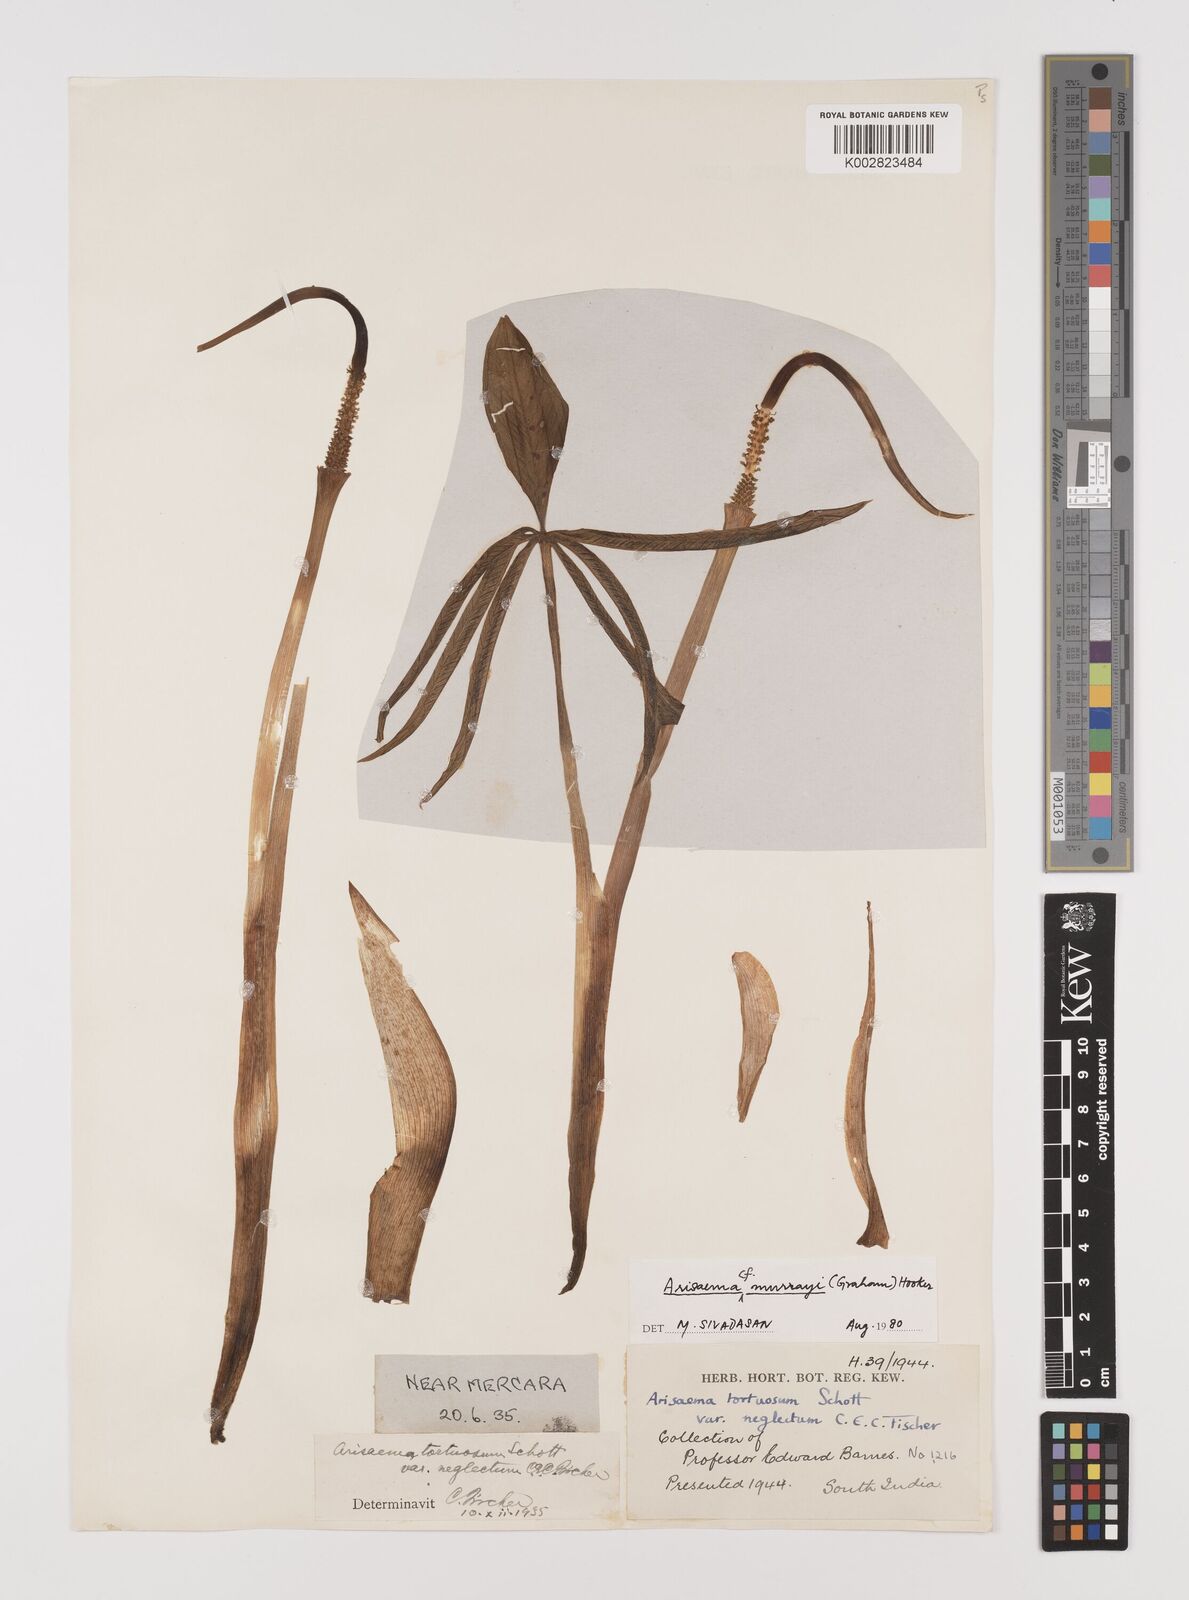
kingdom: Plantae
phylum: Tracheophyta
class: Liliopsida
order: Alismatales
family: Araceae
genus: Arisaema
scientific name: Arisaema
